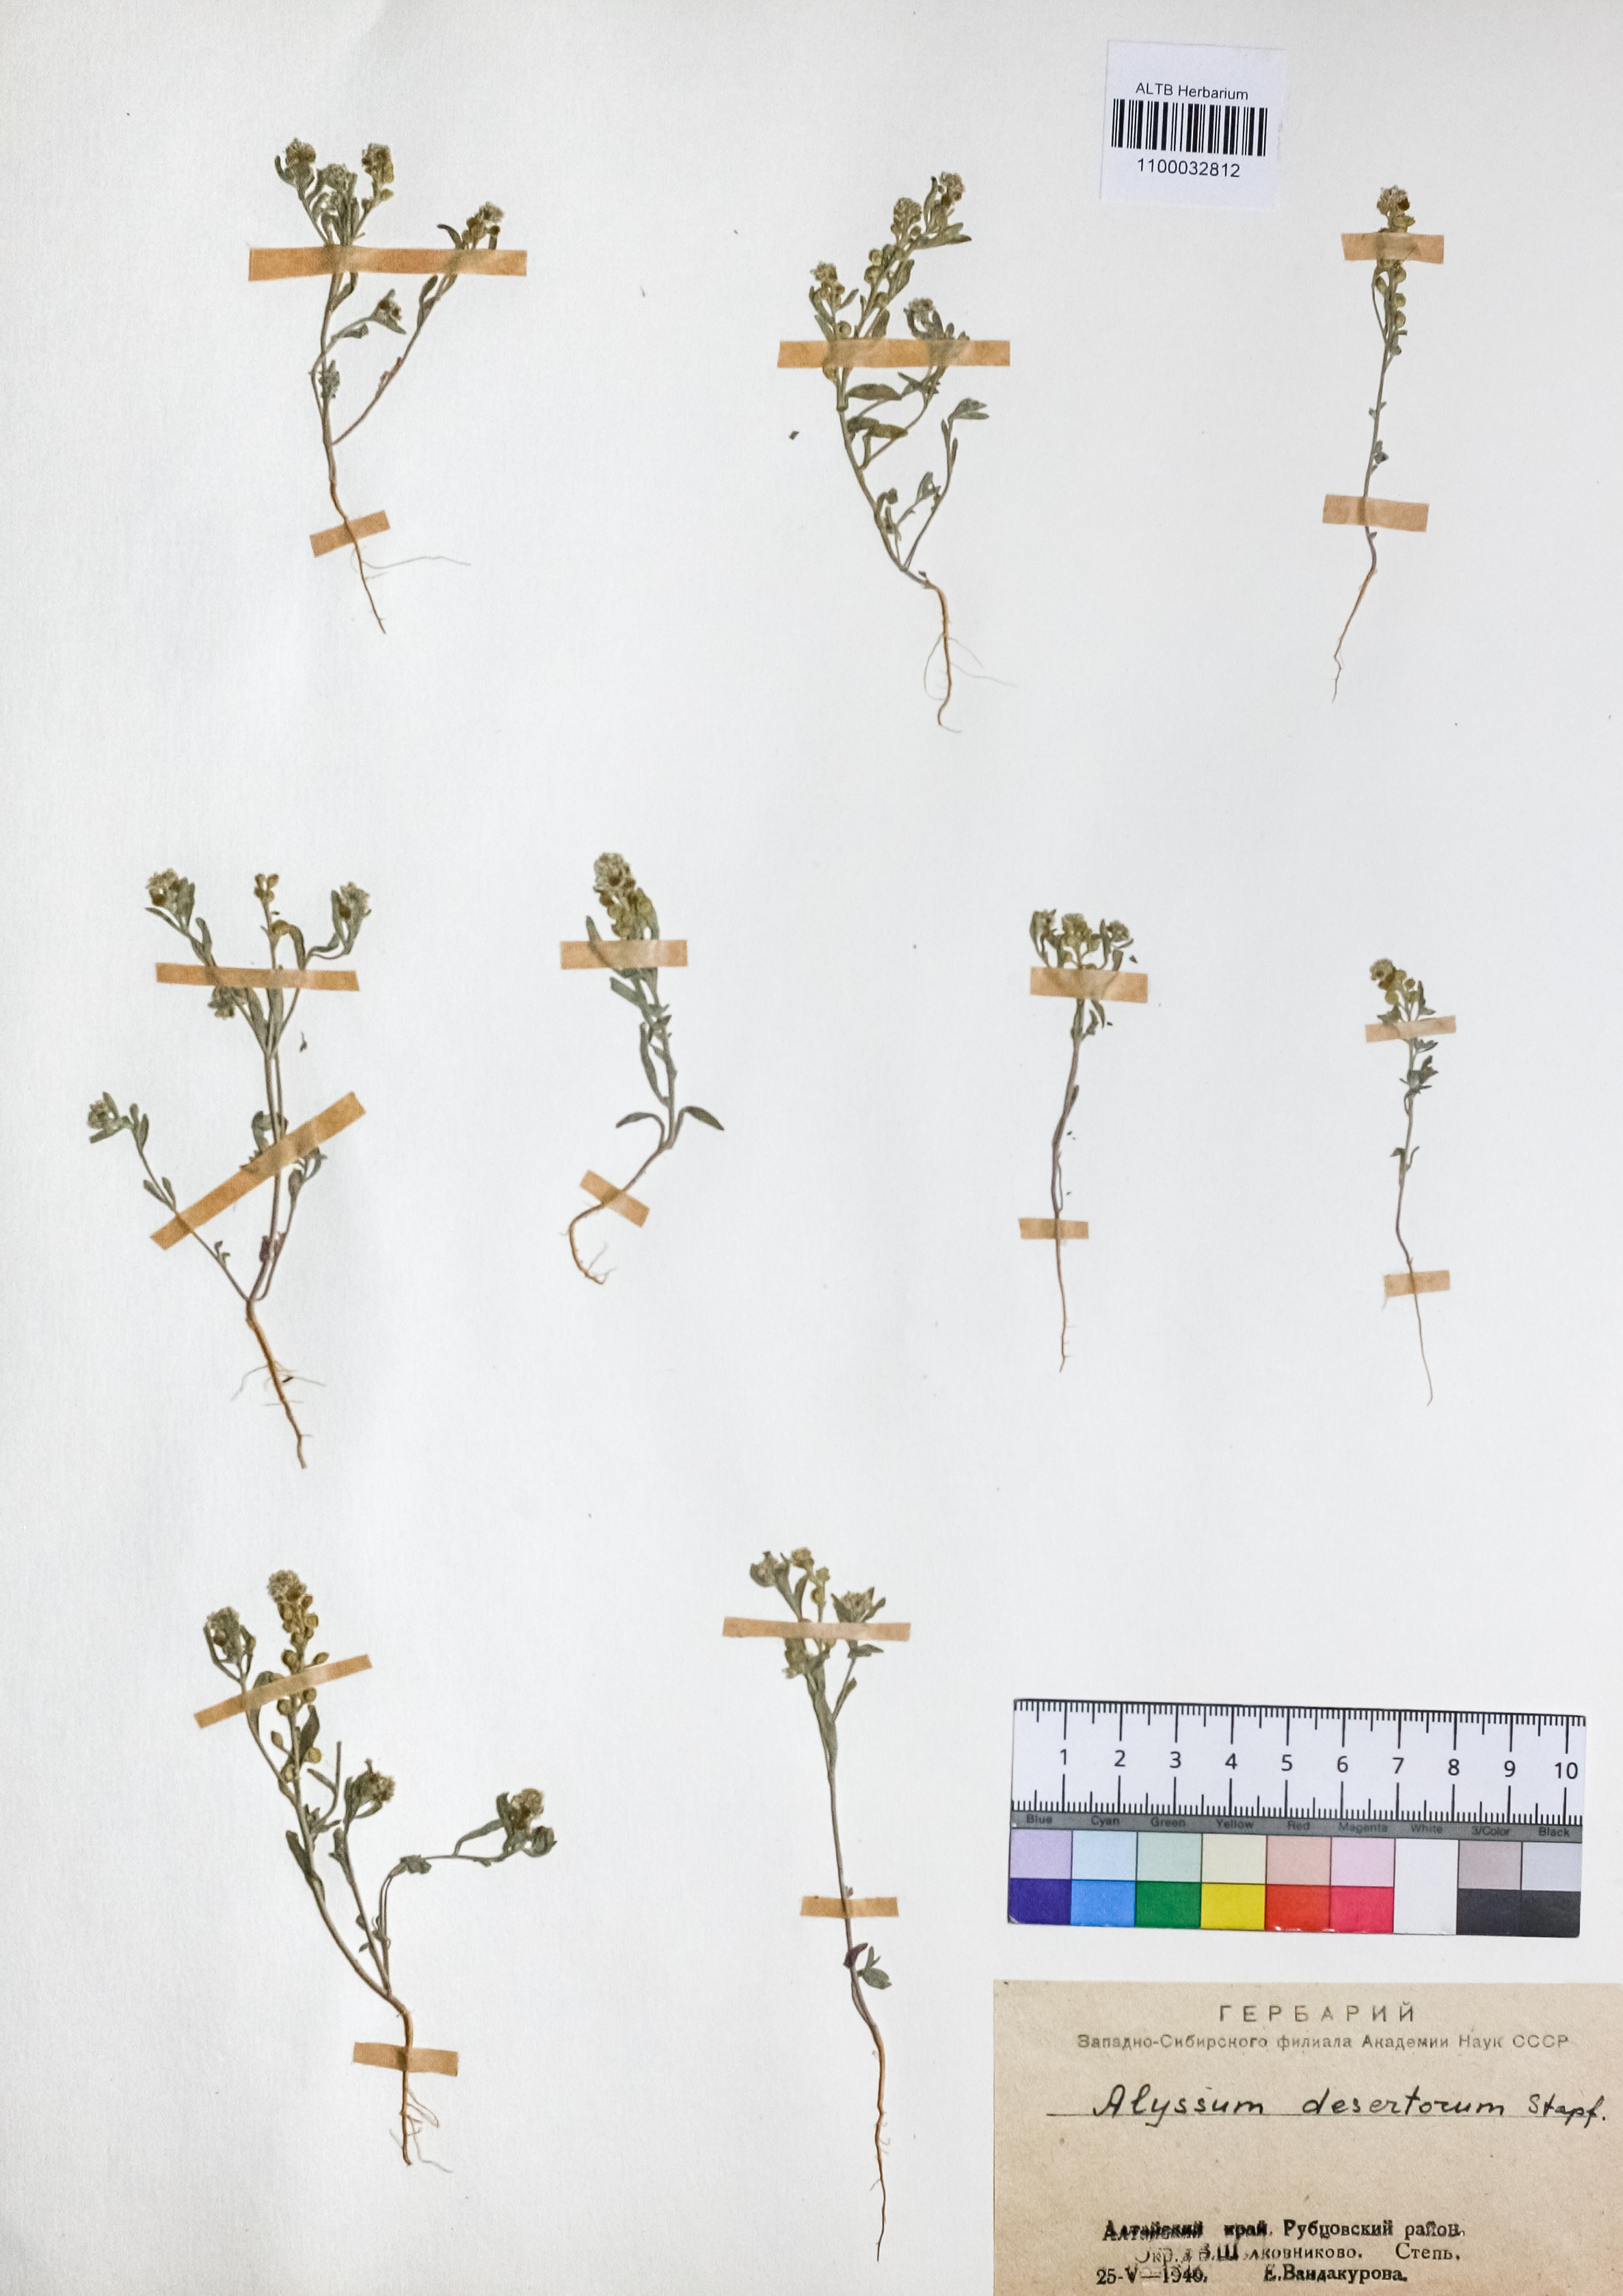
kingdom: Plantae
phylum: Tracheophyta
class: Magnoliopsida
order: Brassicales
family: Brassicaceae
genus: Alyssum
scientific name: Alyssum turkestanicum
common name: Desert alyssum
